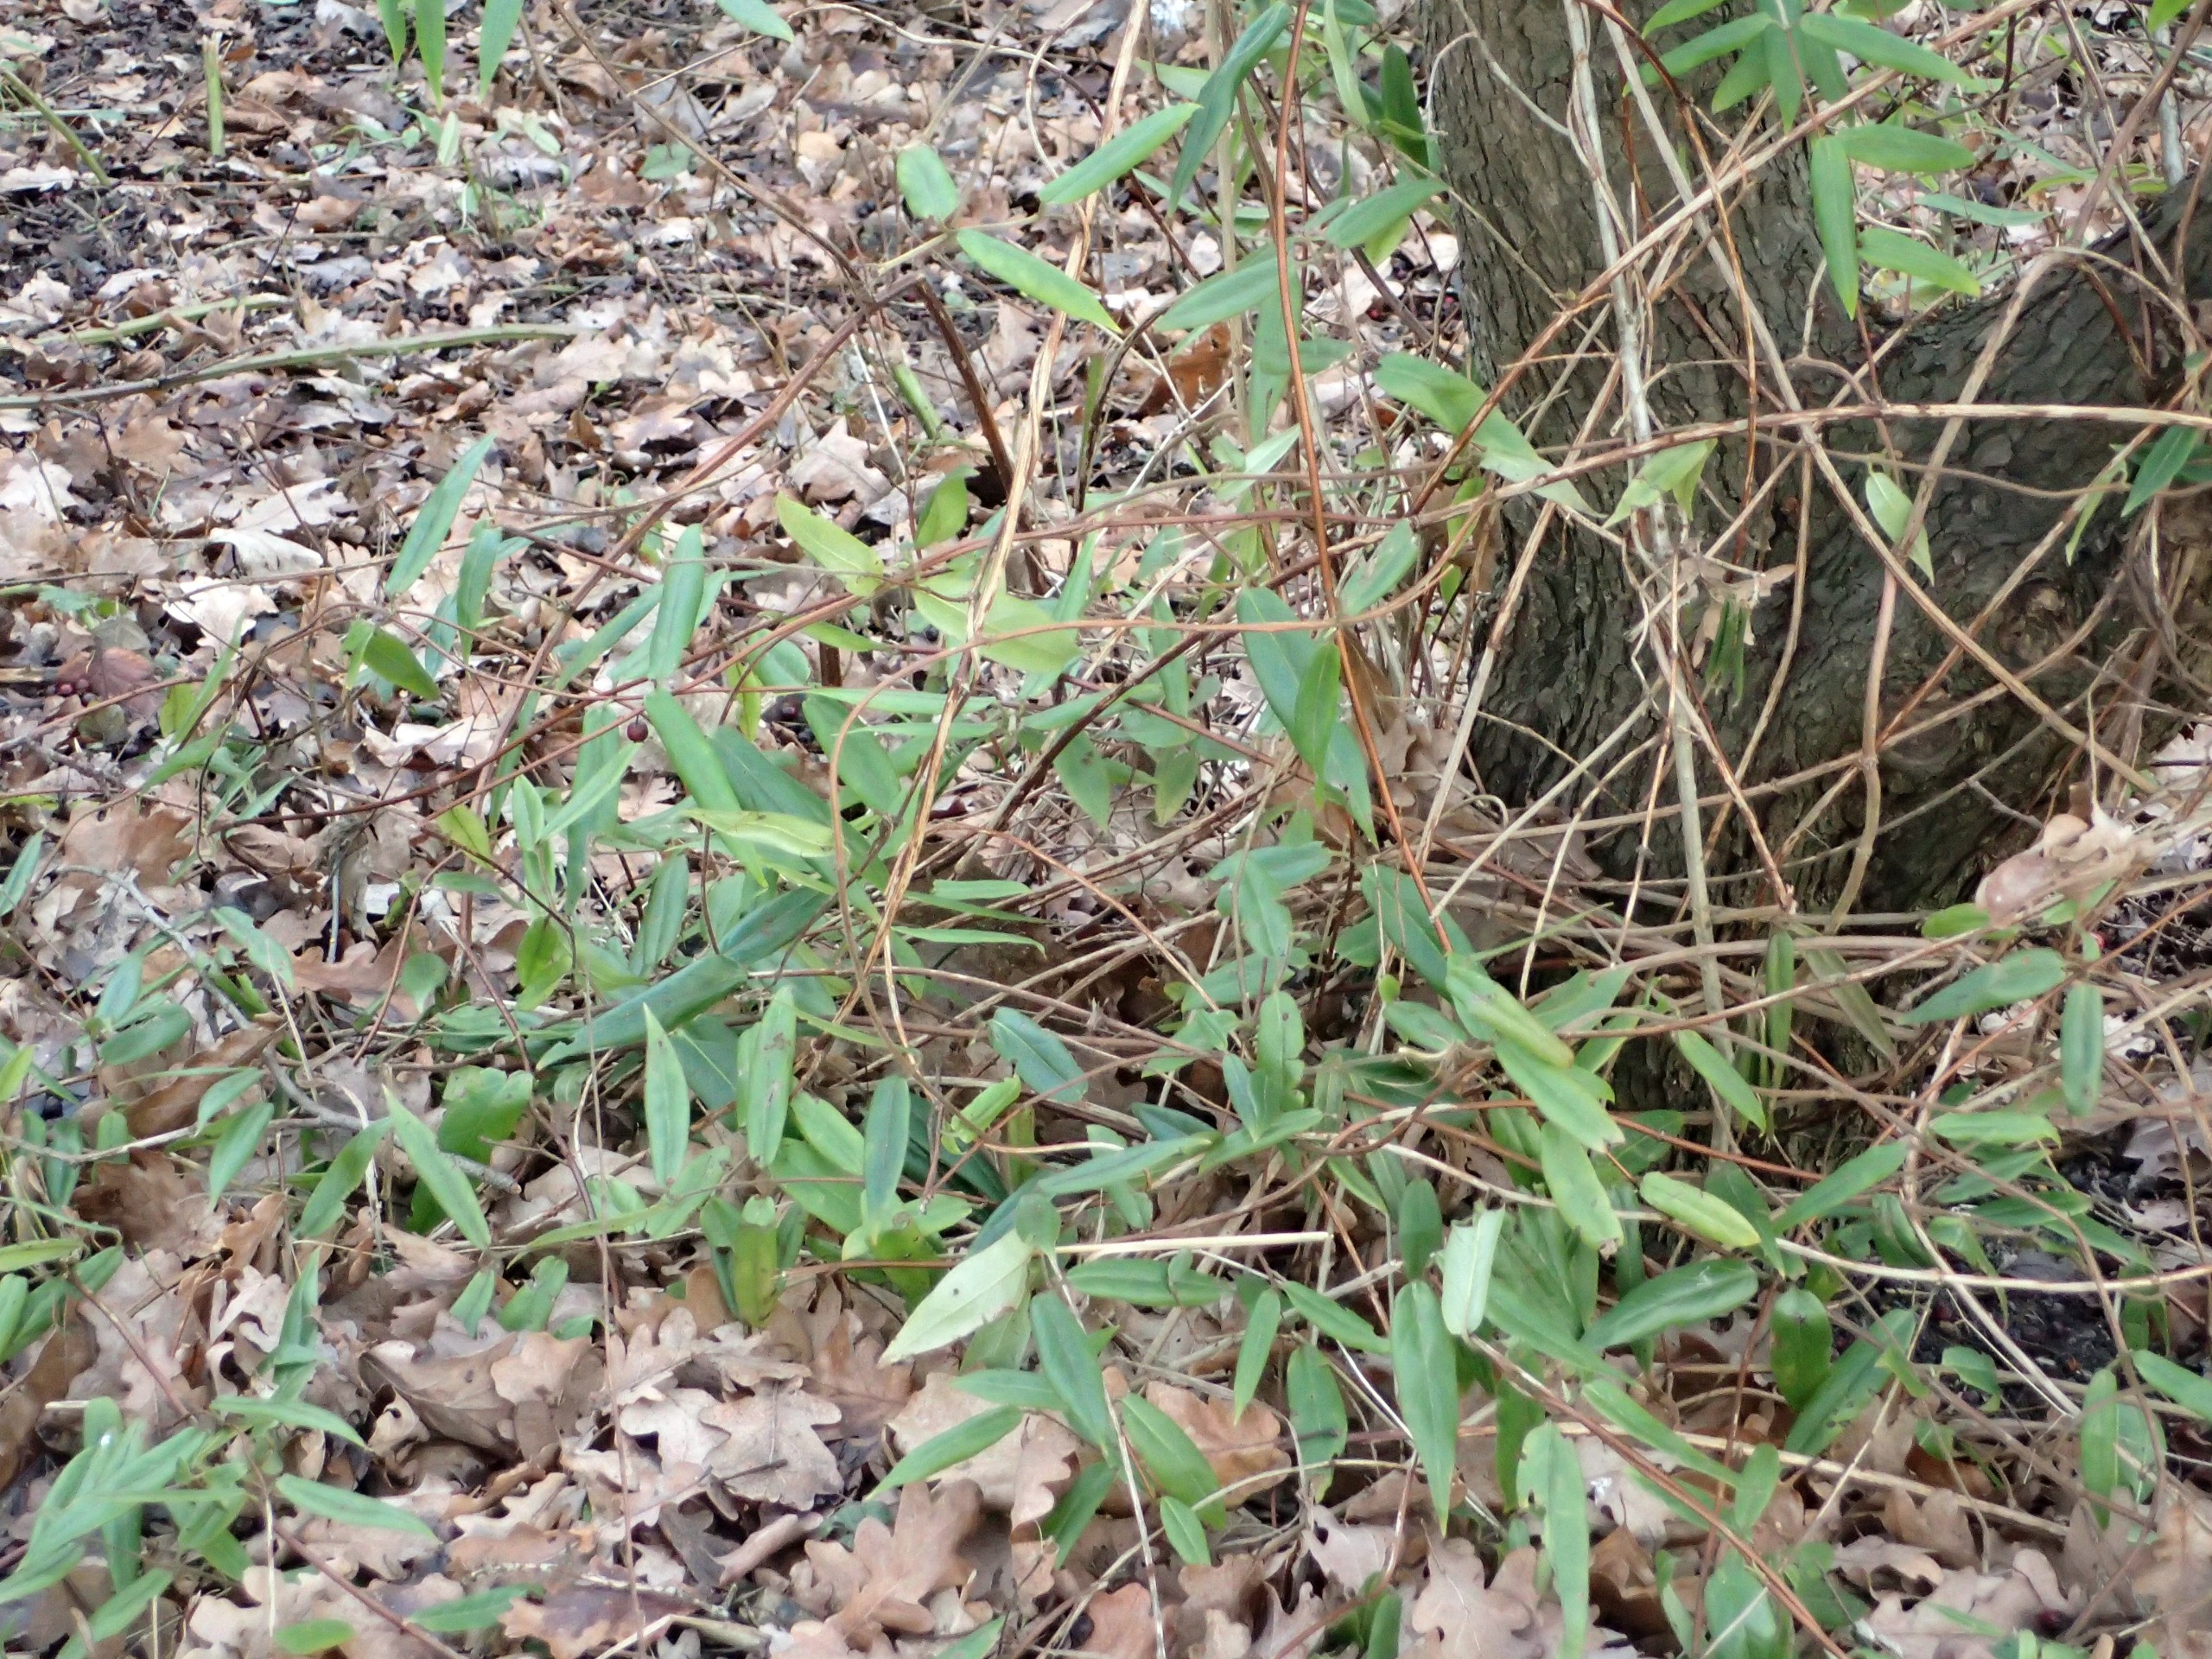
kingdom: Plantae
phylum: Tracheophyta
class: Magnoliopsida
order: Dipsacales
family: Caprifoliaceae
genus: Lonicera
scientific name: Lonicera acuminata
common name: Henrys gedeblad
